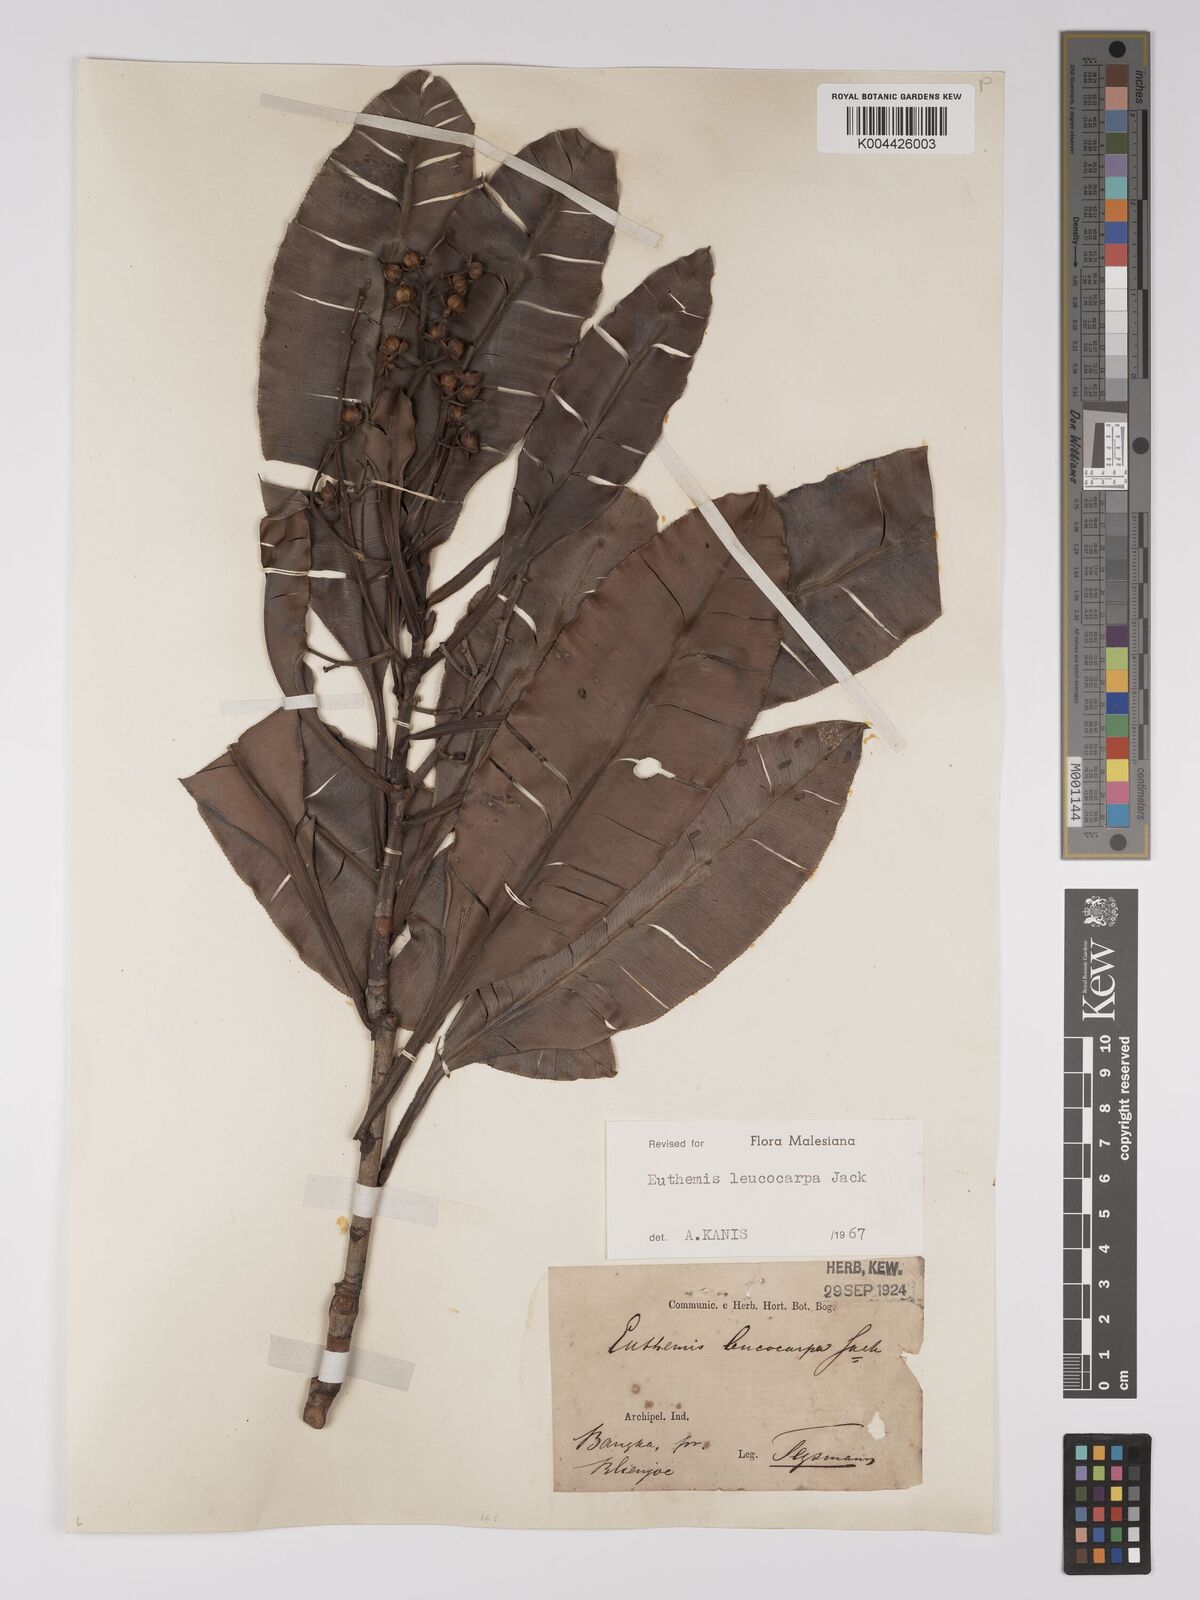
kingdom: Plantae
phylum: Tracheophyta
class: Magnoliopsida
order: Malpighiales
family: Ochnaceae
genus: Euthemis
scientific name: Euthemis leucocarpa
